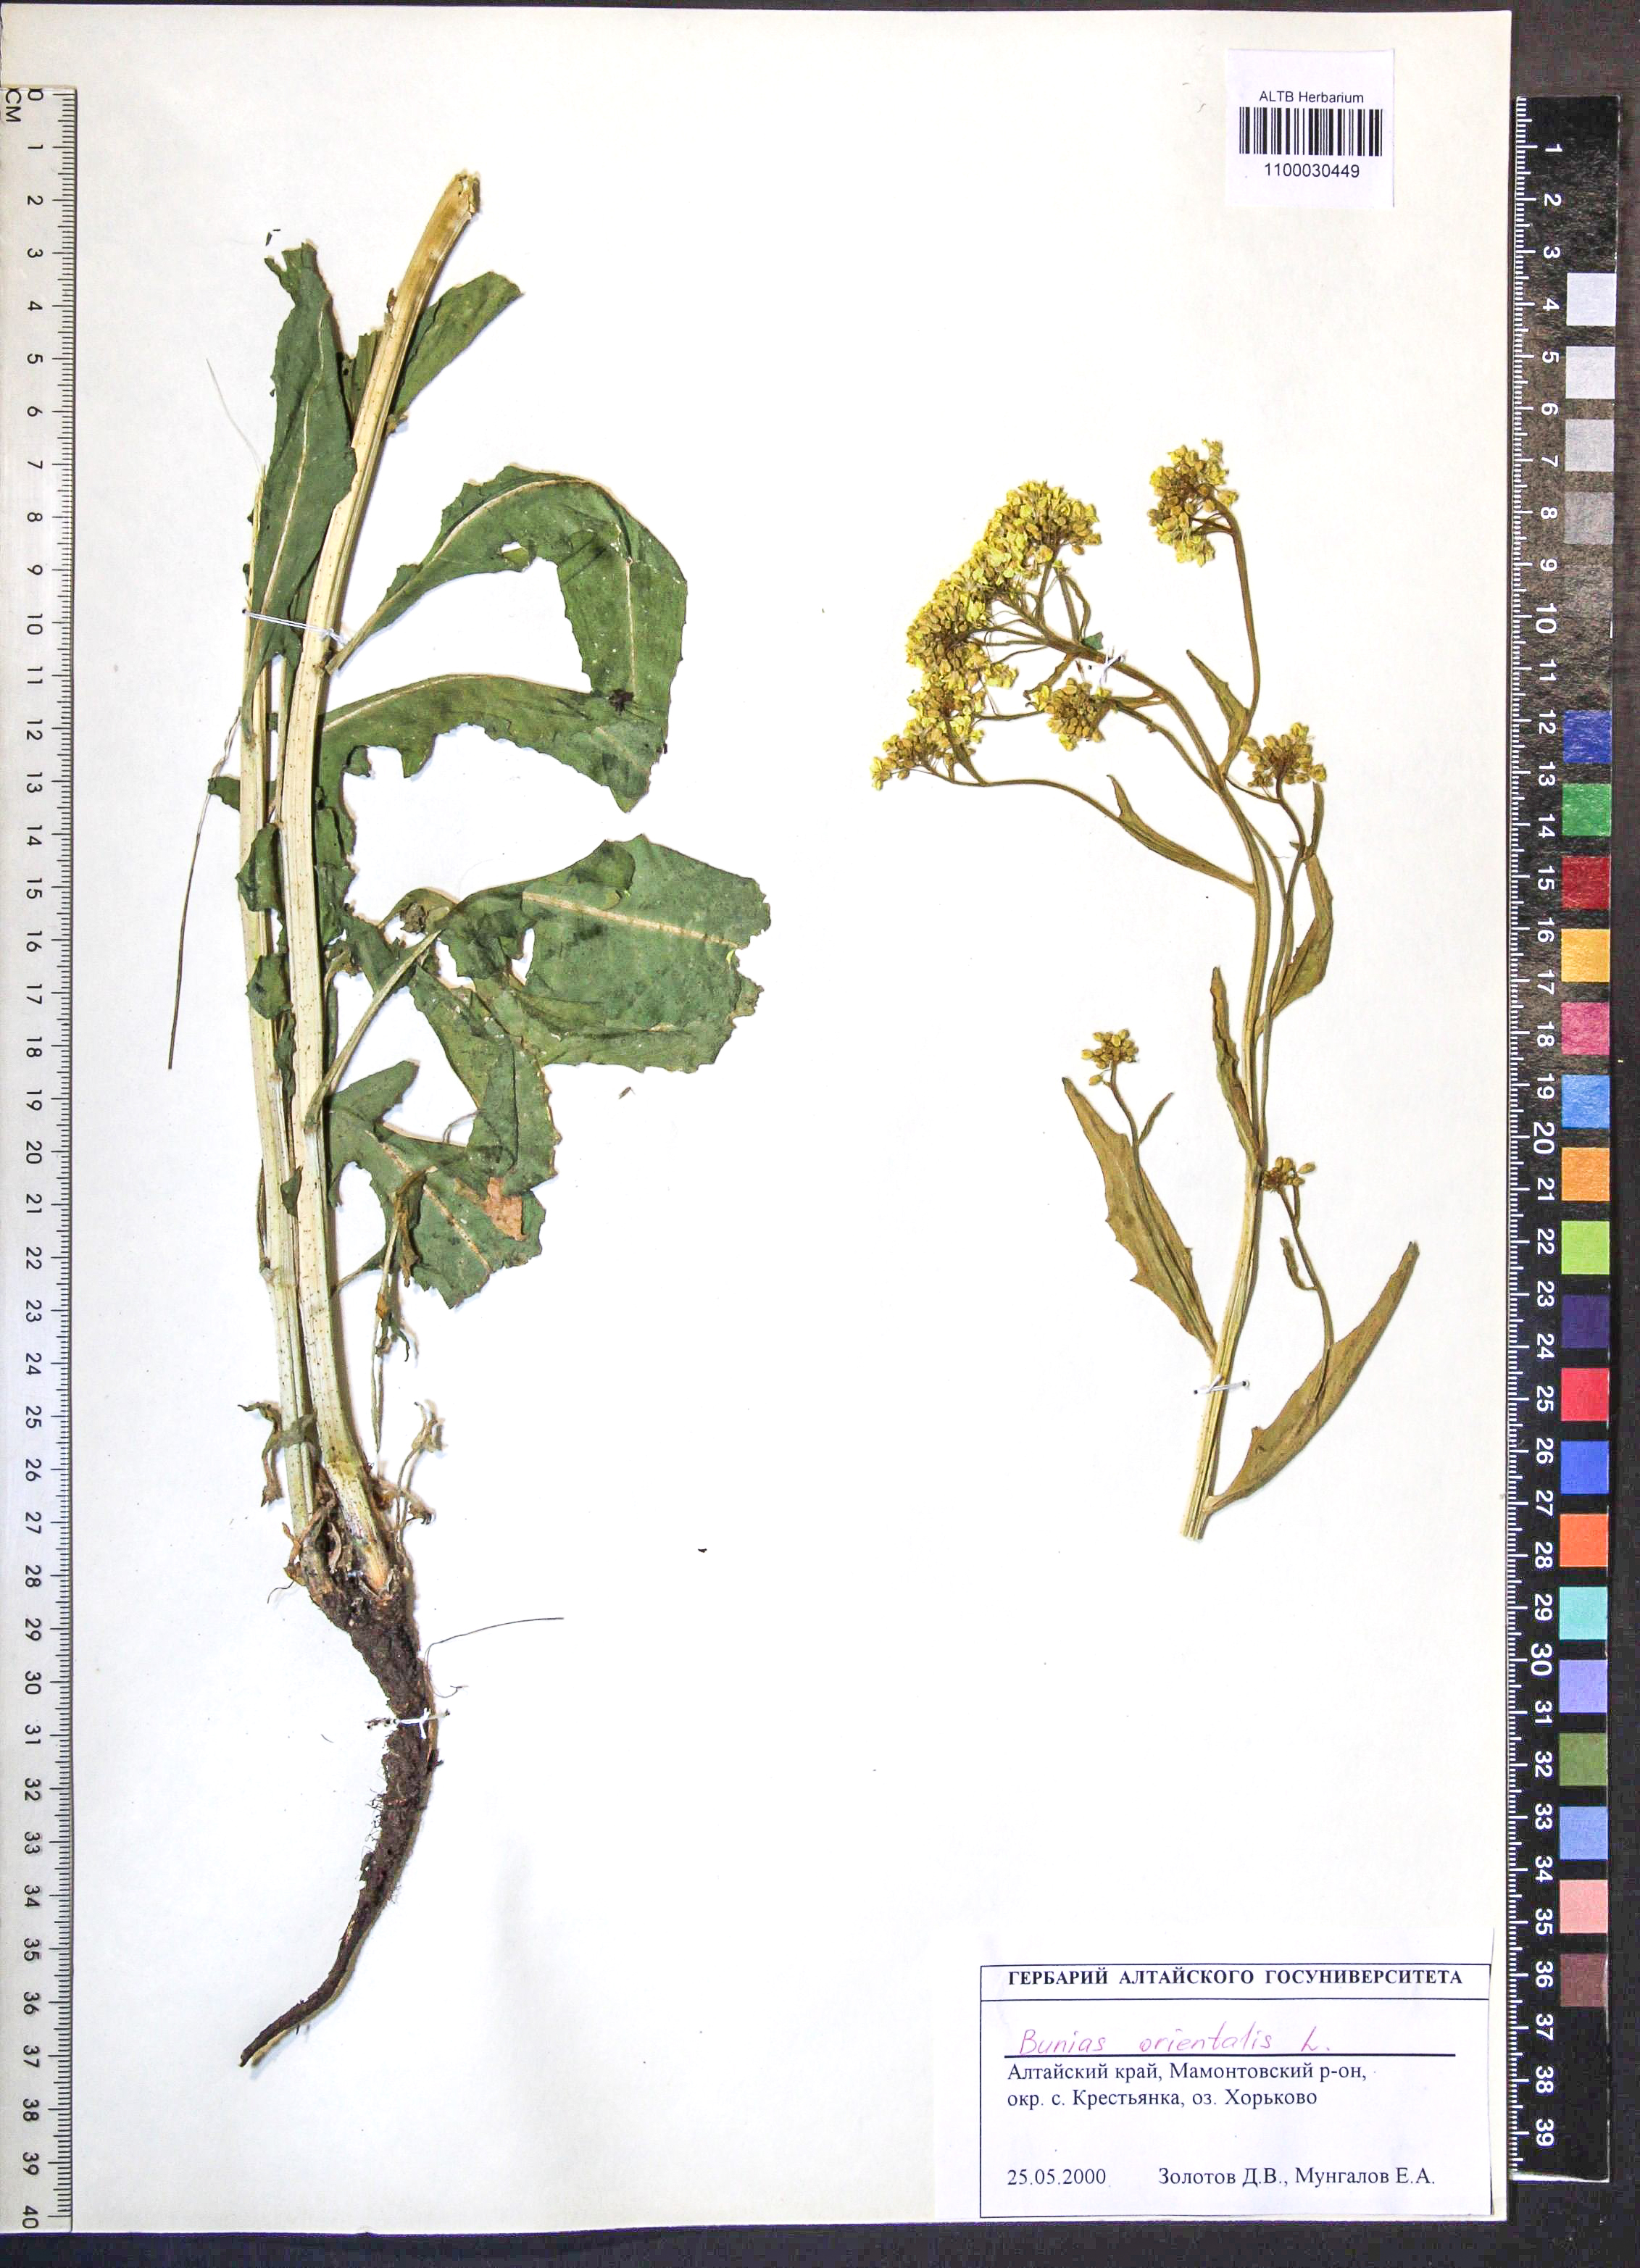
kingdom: Plantae
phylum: Tracheophyta
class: Magnoliopsida
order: Brassicales
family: Brassicaceae
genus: Bunias
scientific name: Bunias orientalis
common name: Warty-cabbage
